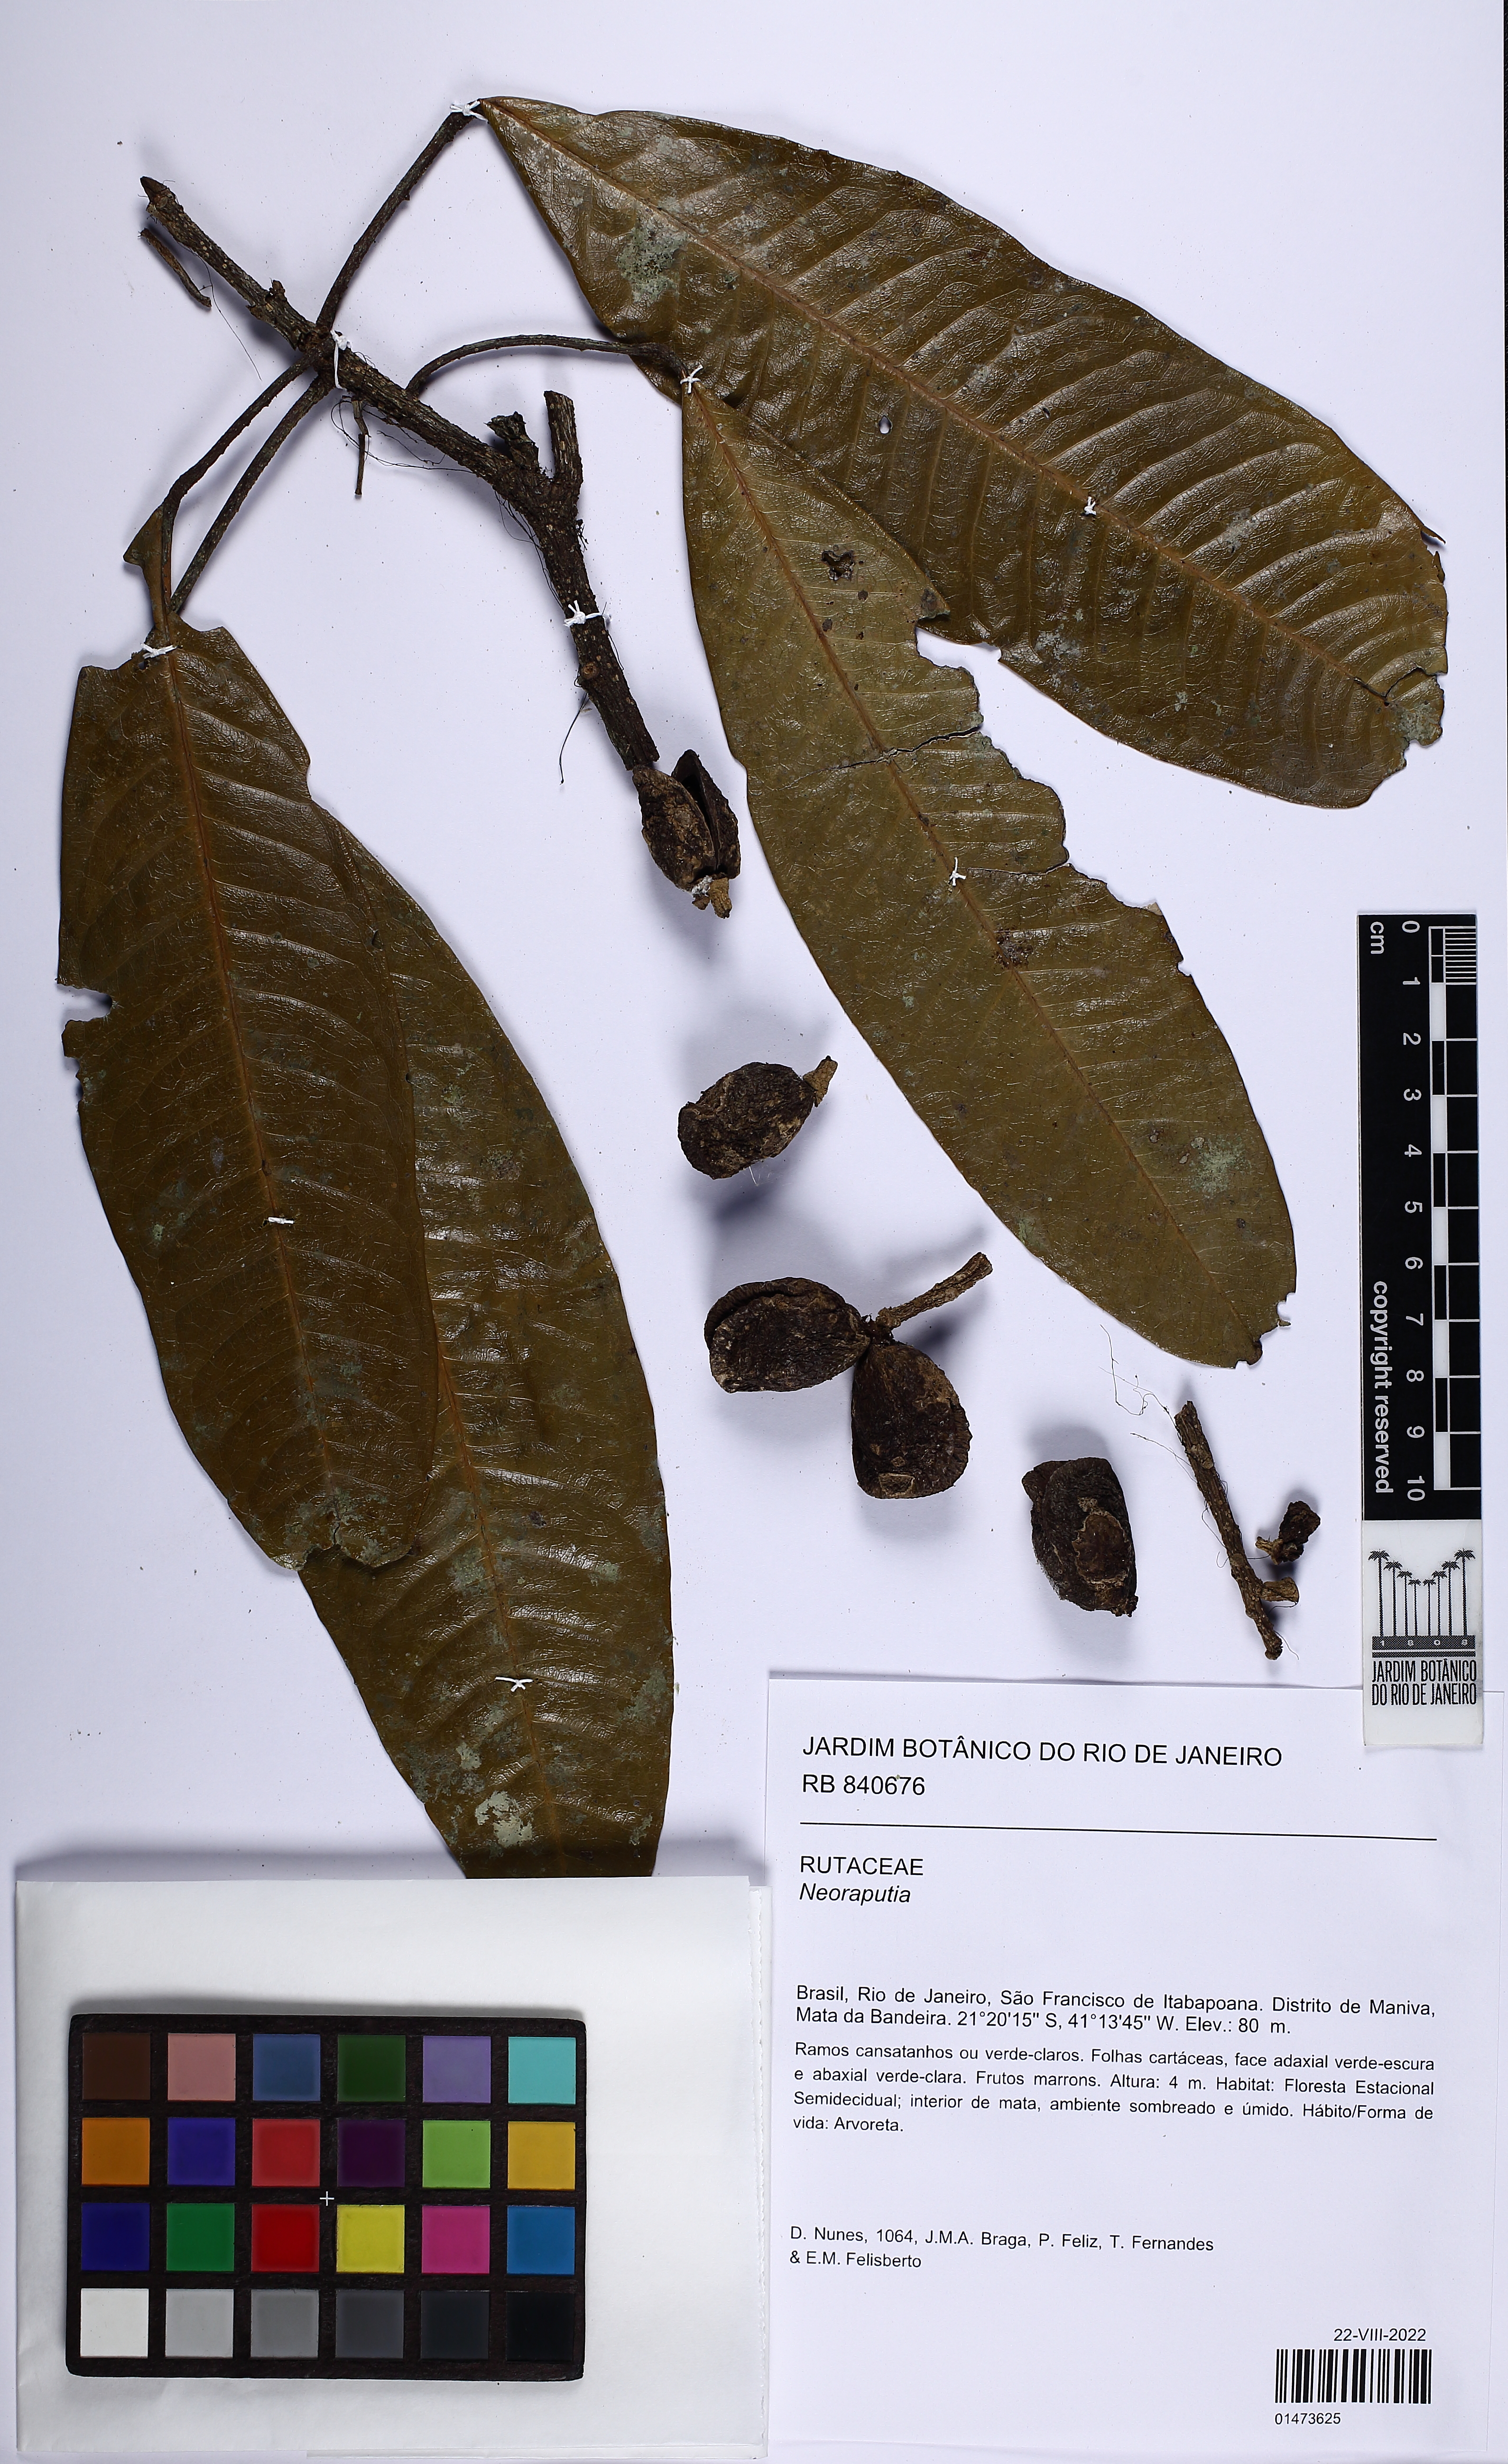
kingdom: Plantae
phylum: Tracheophyta
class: Magnoliopsida
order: Sapindales
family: Rutaceae
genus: Conchocarpus
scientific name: Conchocarpus macrocarpus
